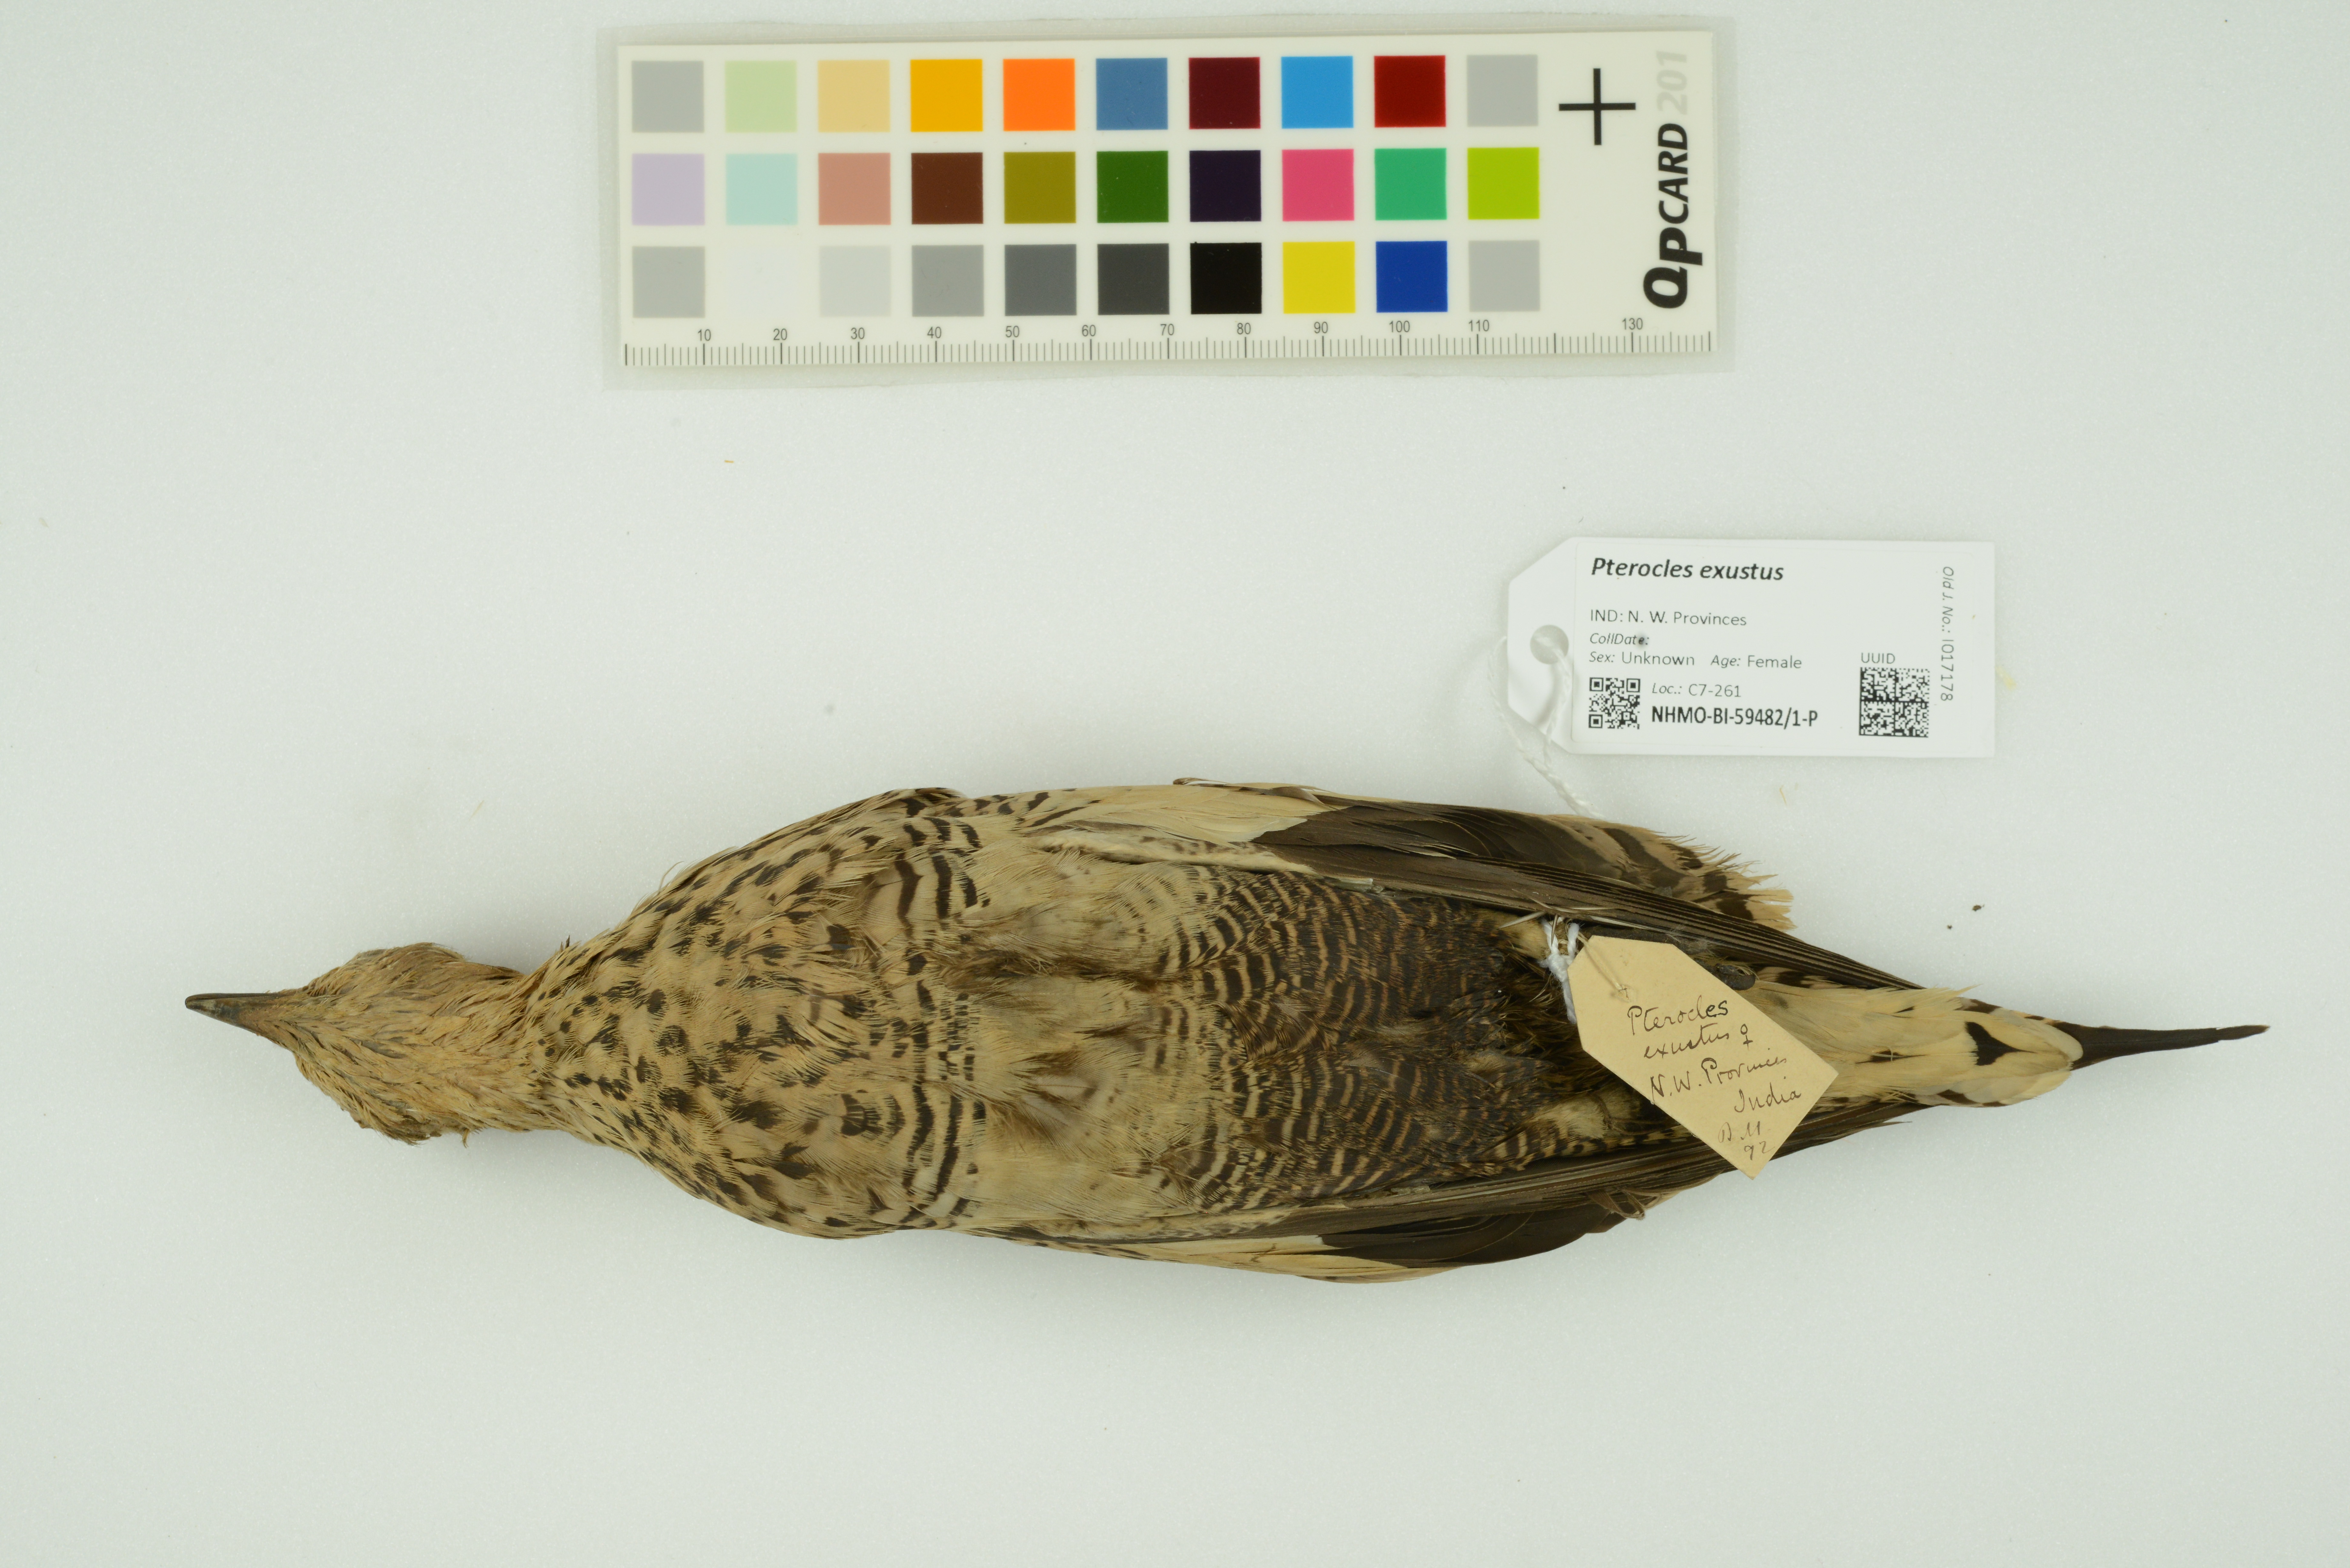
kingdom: Animalia
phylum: Chordata
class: Aves
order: Pteroclidiformes
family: Pteroclididae
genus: Pterocles
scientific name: Pterocles exustus
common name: Chestnut-bellied sandgrouse
